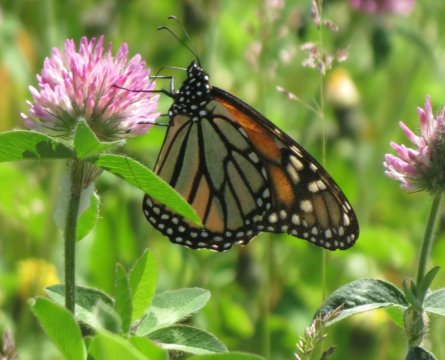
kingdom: Animalia
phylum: Arthropoda
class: Insecta
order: Lepidoptera
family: Nymphalidae
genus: Danaus
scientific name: Danaus plexippus
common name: Monarch
